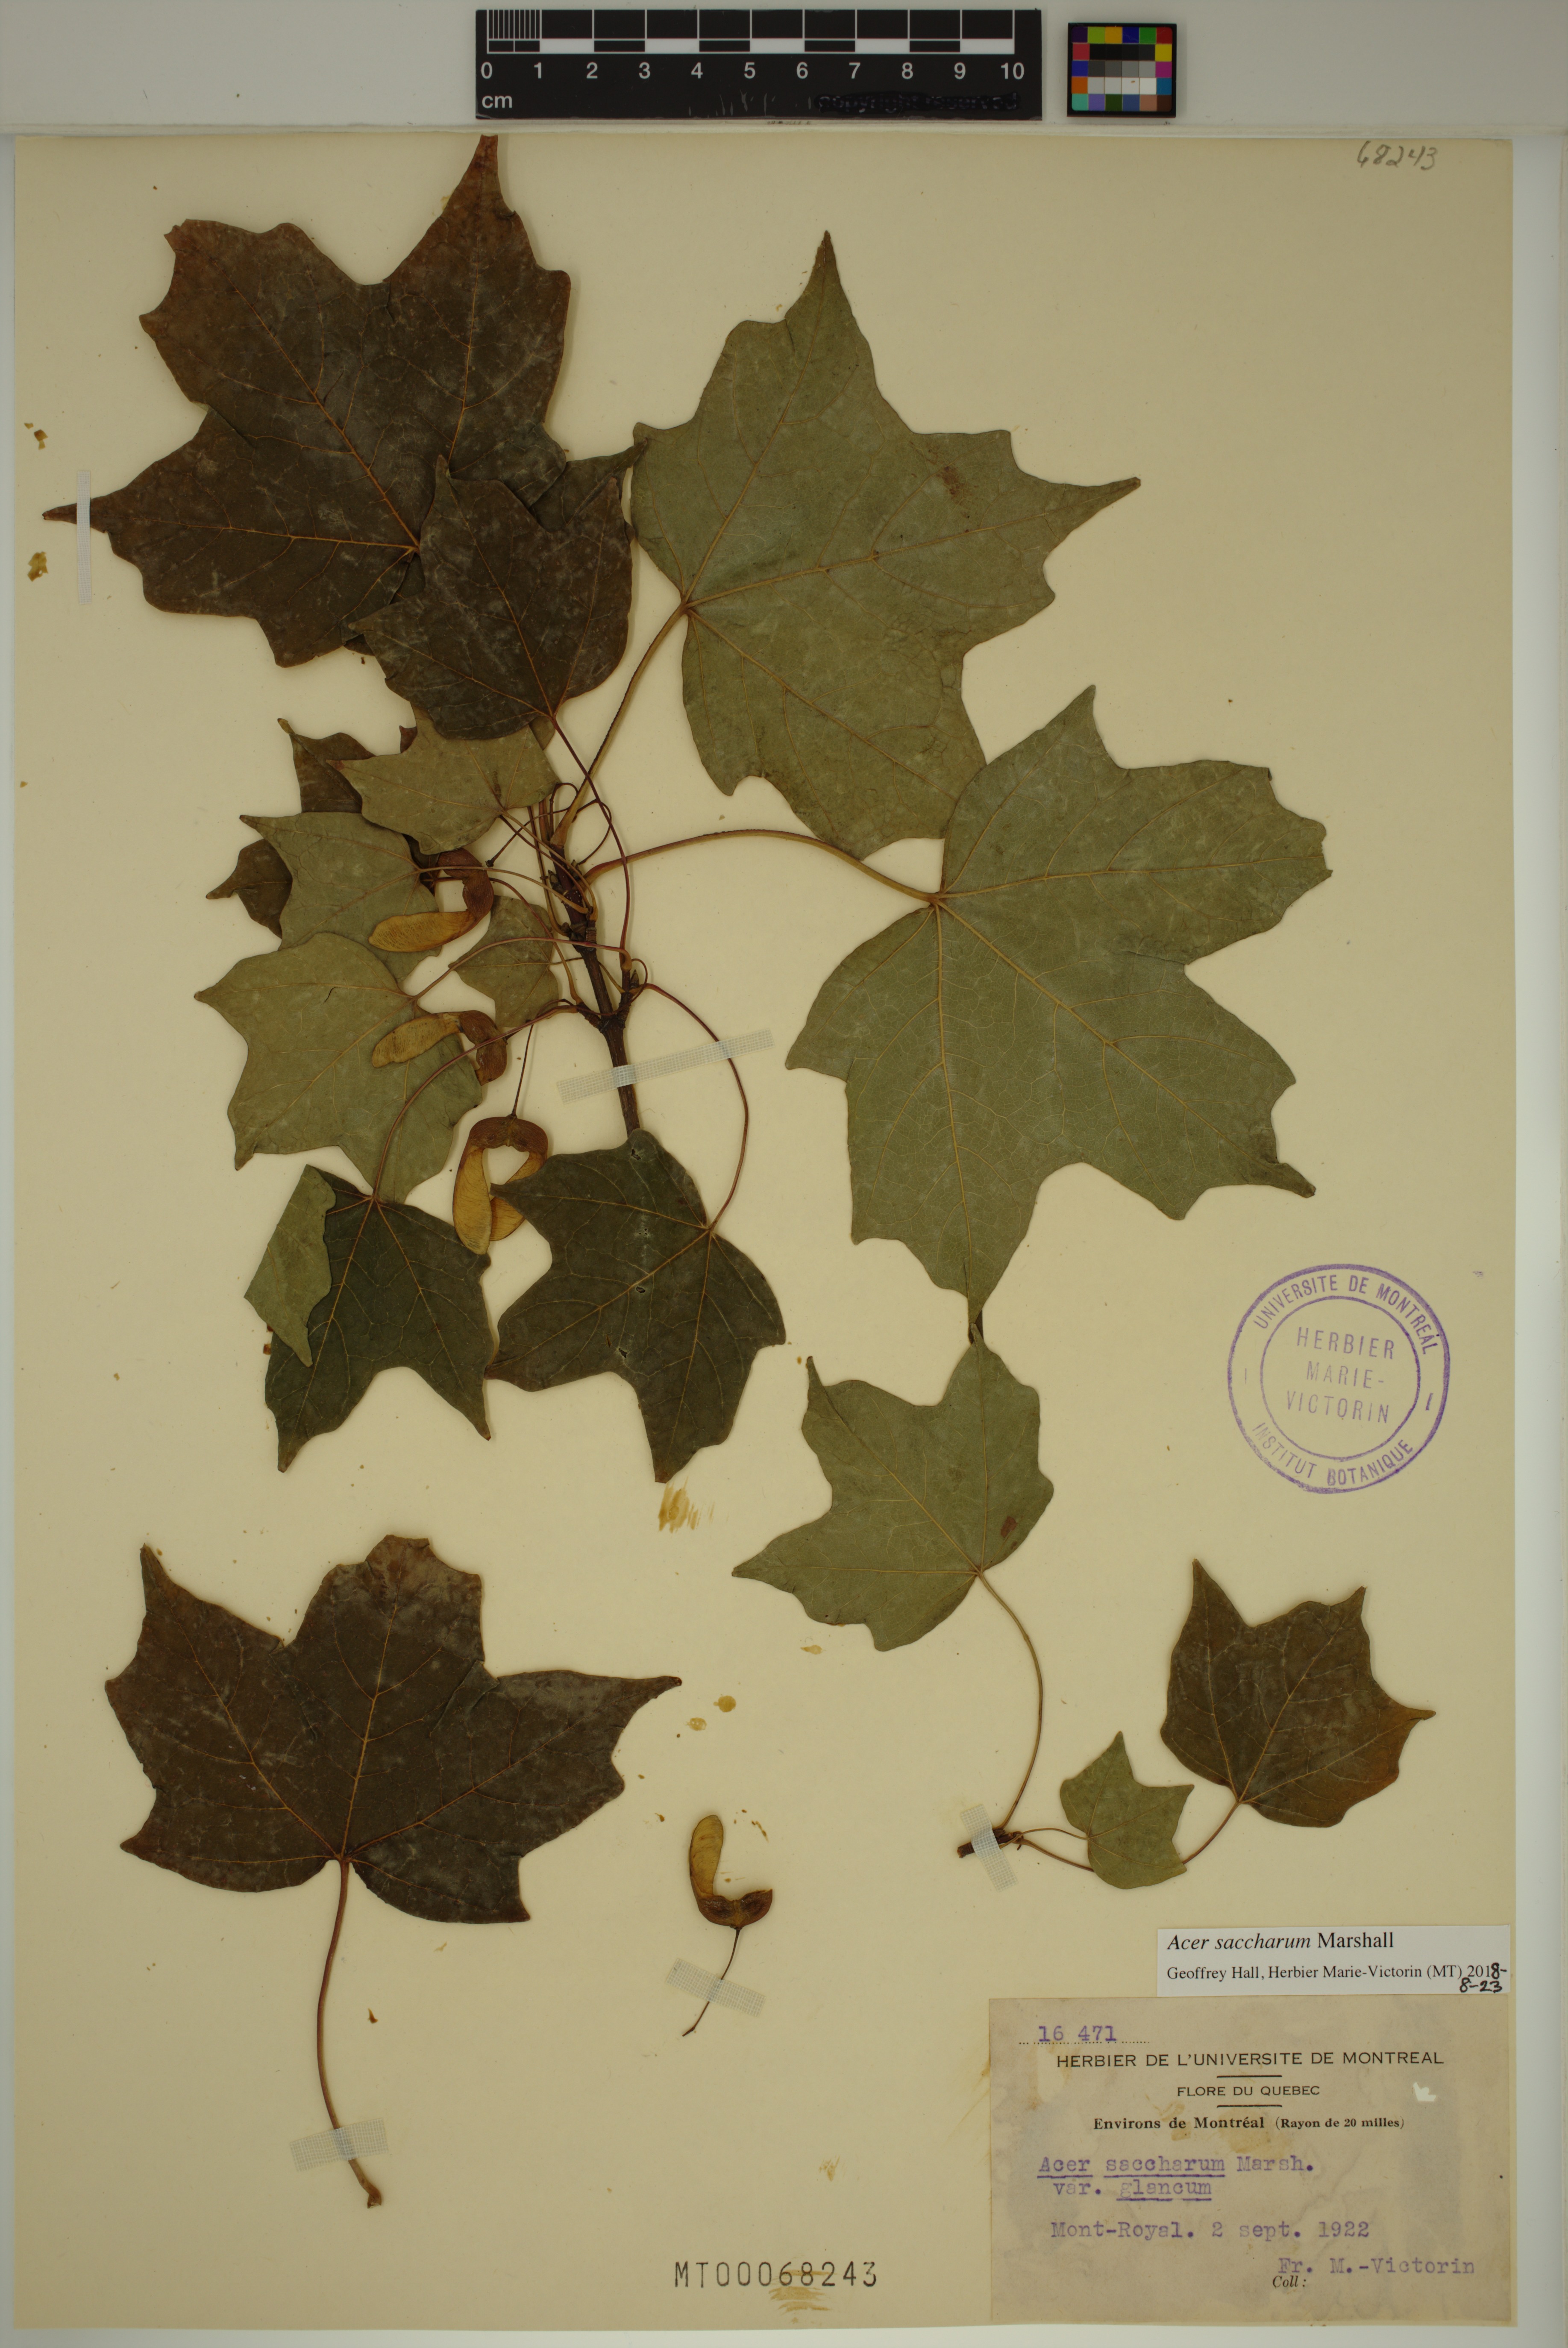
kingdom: Plantae
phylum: Tracheophyta
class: Magnoliopsida
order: Sapindales
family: Sapindaceae
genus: Acer
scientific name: Acer saccharum
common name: Sugar maple
